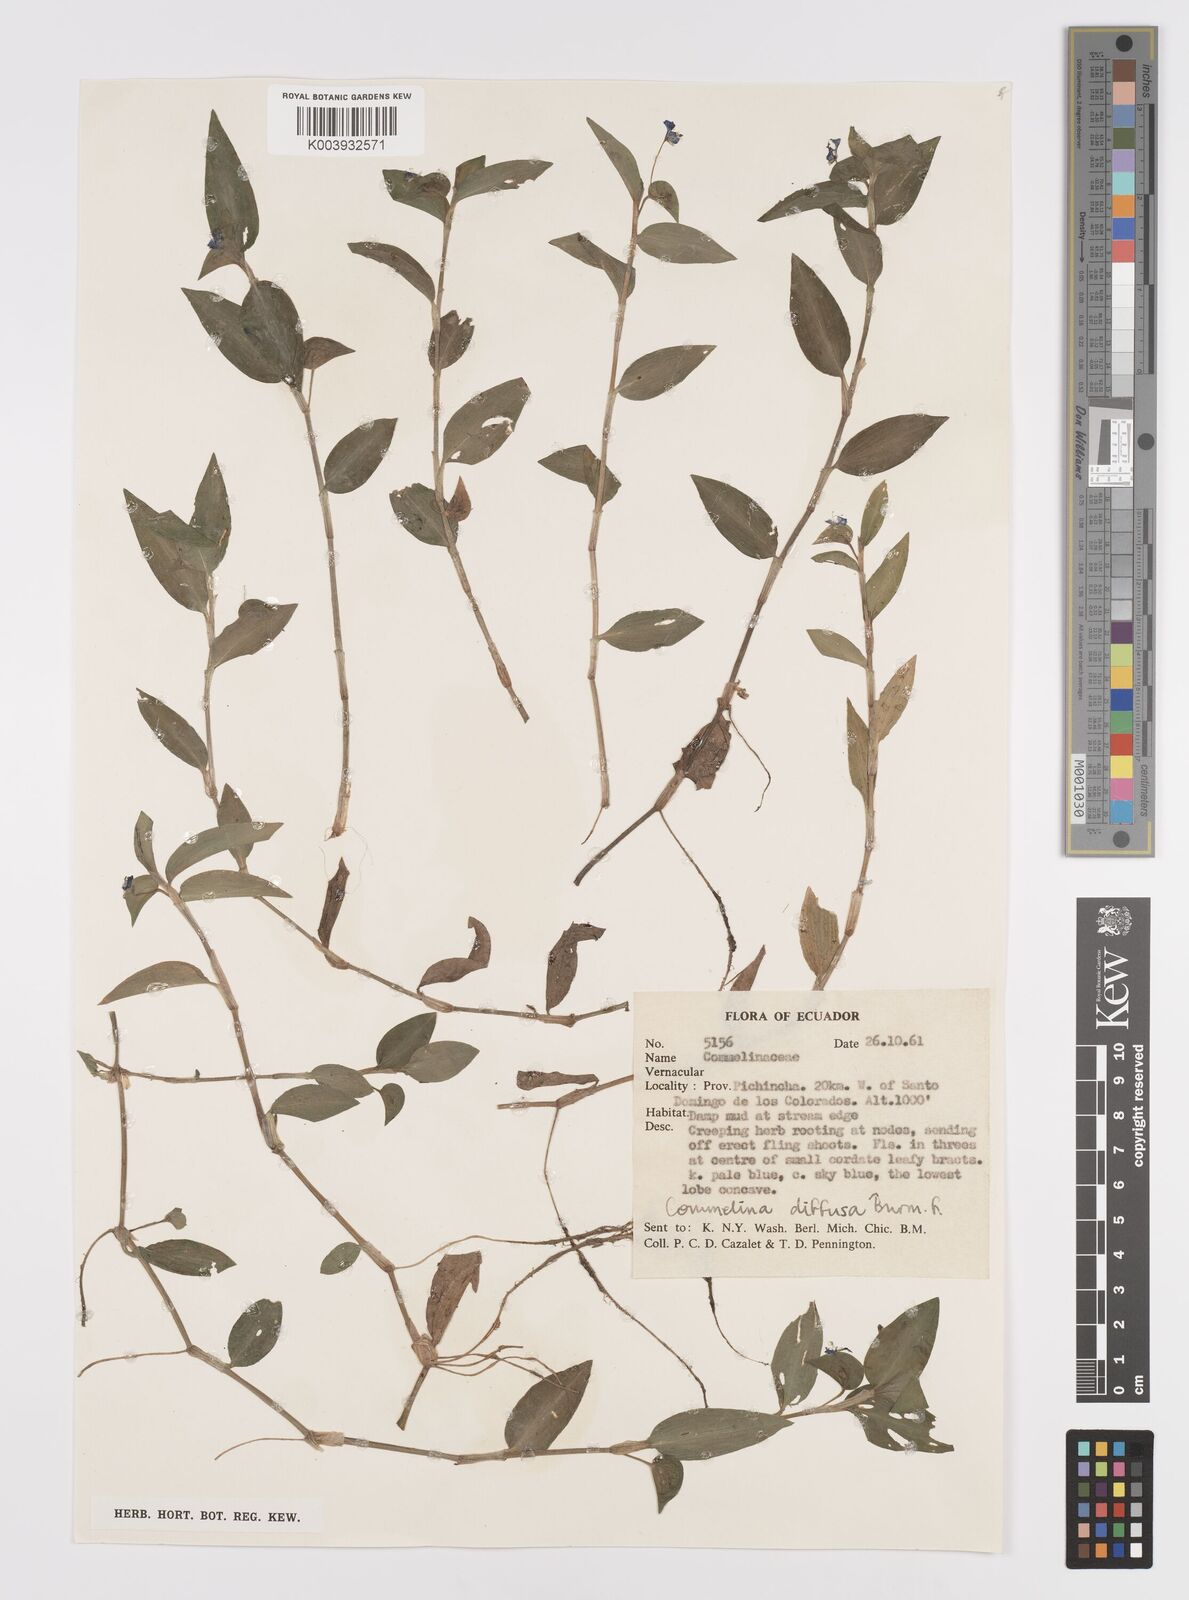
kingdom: Plantae
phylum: Tracheophyta
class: Liliopsida
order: Commelinales
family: Commelinaceae
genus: Commelina
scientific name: Commelina diffusa
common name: Climbing dayflower
